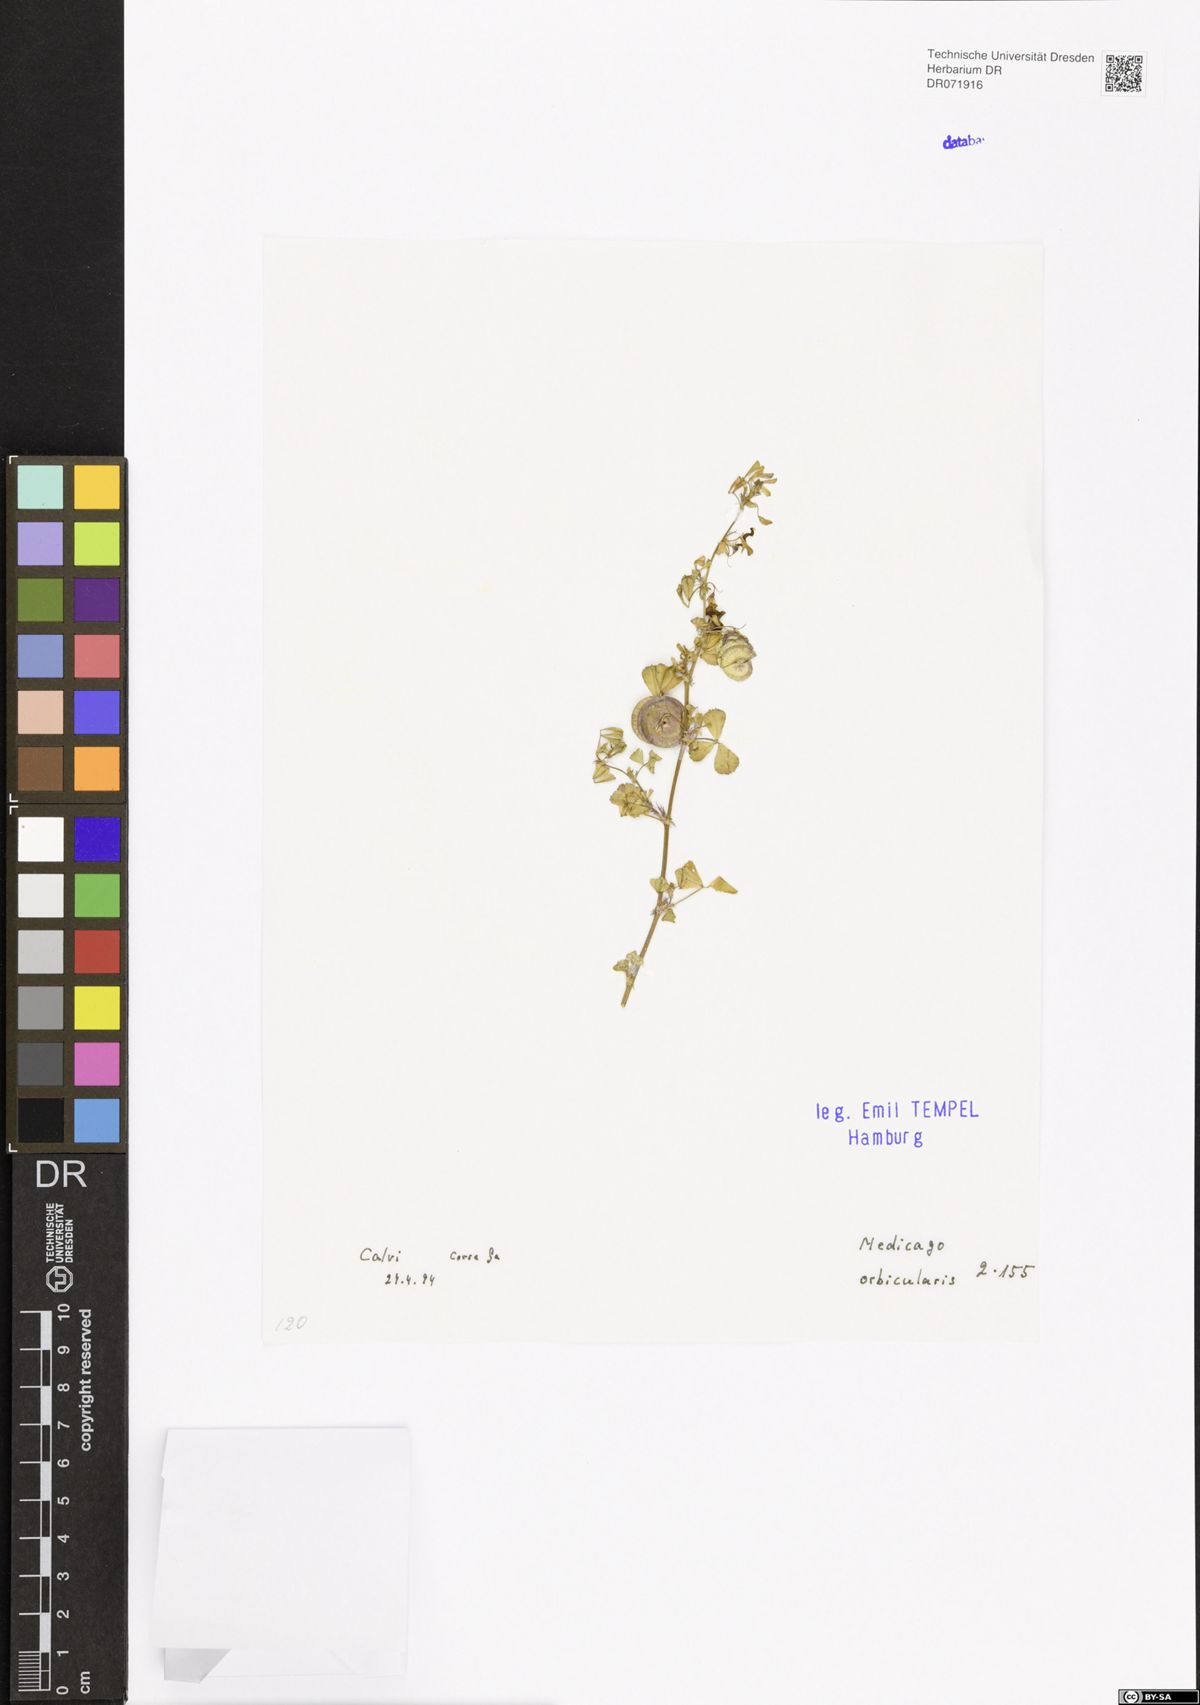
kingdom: Plantae
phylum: Tracheophyta
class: Magnoliopsida
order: Fabales
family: Fabaceae
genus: Medicago
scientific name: Medicago orbicularis
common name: Button medick
